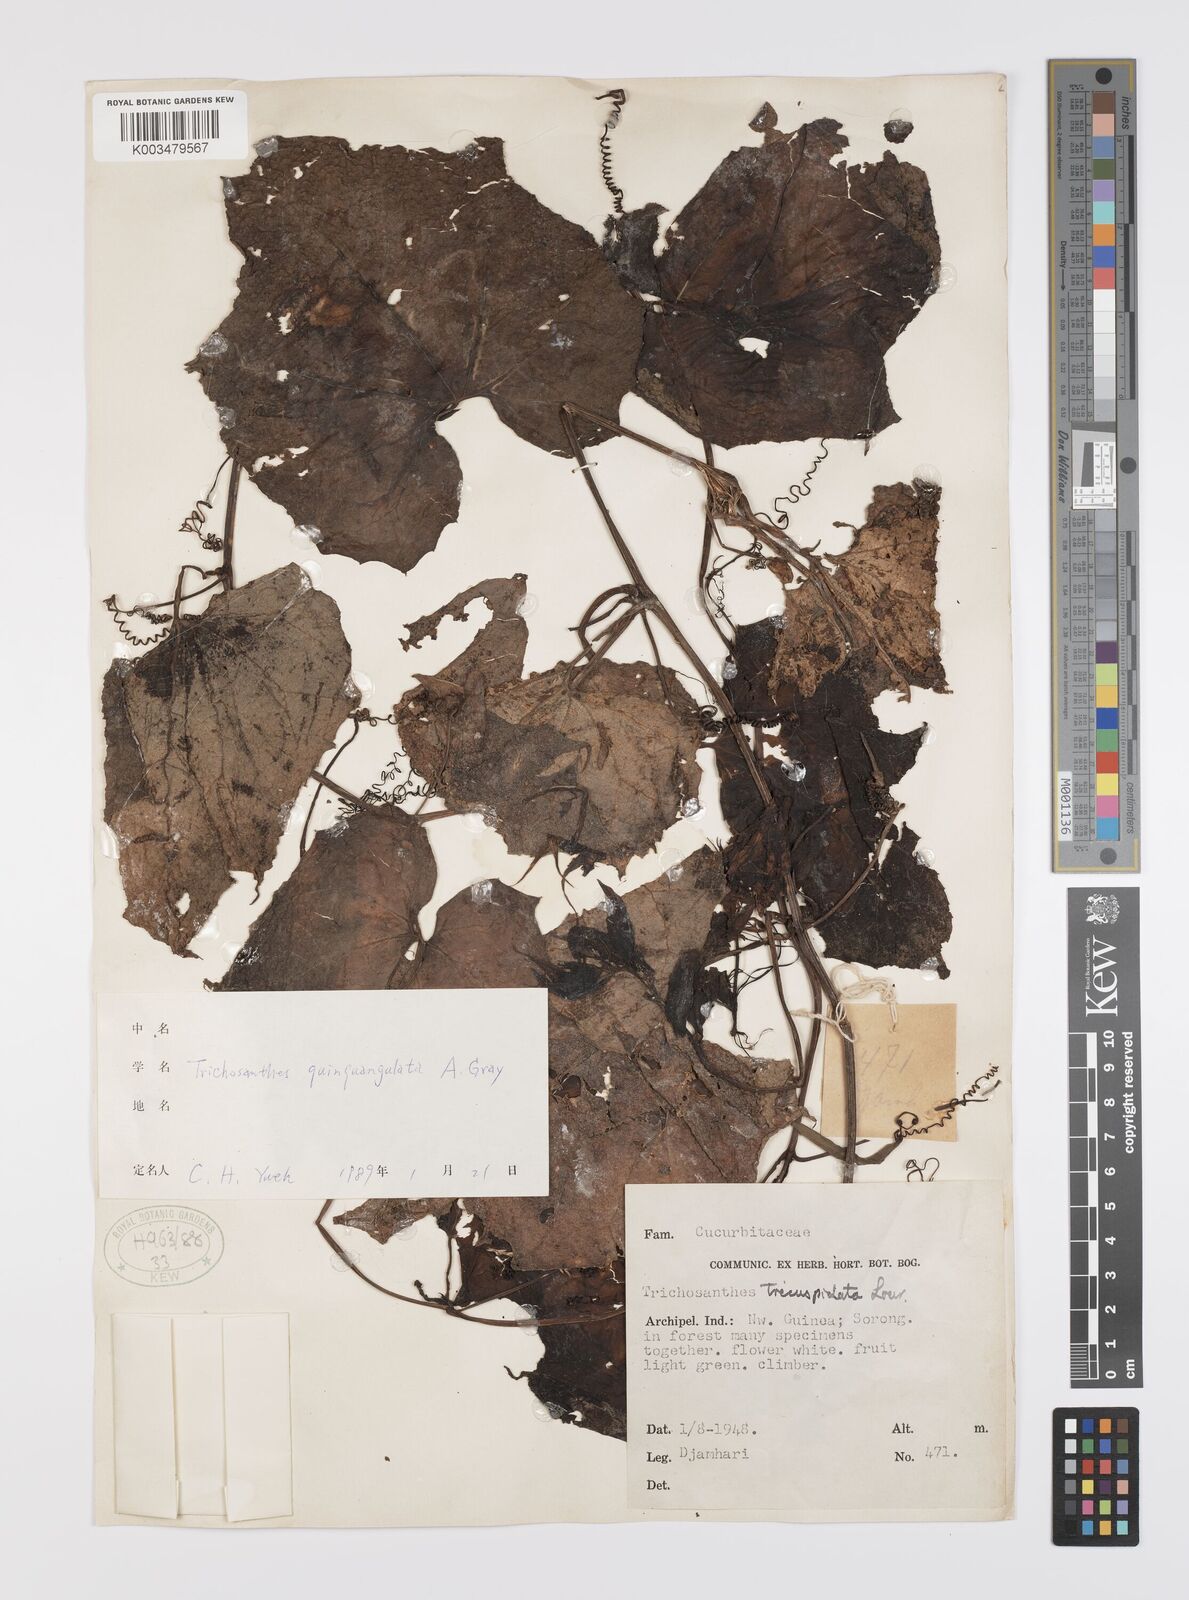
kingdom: Plantae
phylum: Tracheophyta
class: Magnoliopsida
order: Cucurbitales
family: Cucurbitaceae
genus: Trichosanthes
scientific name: Trichosanthes quinquangulata
